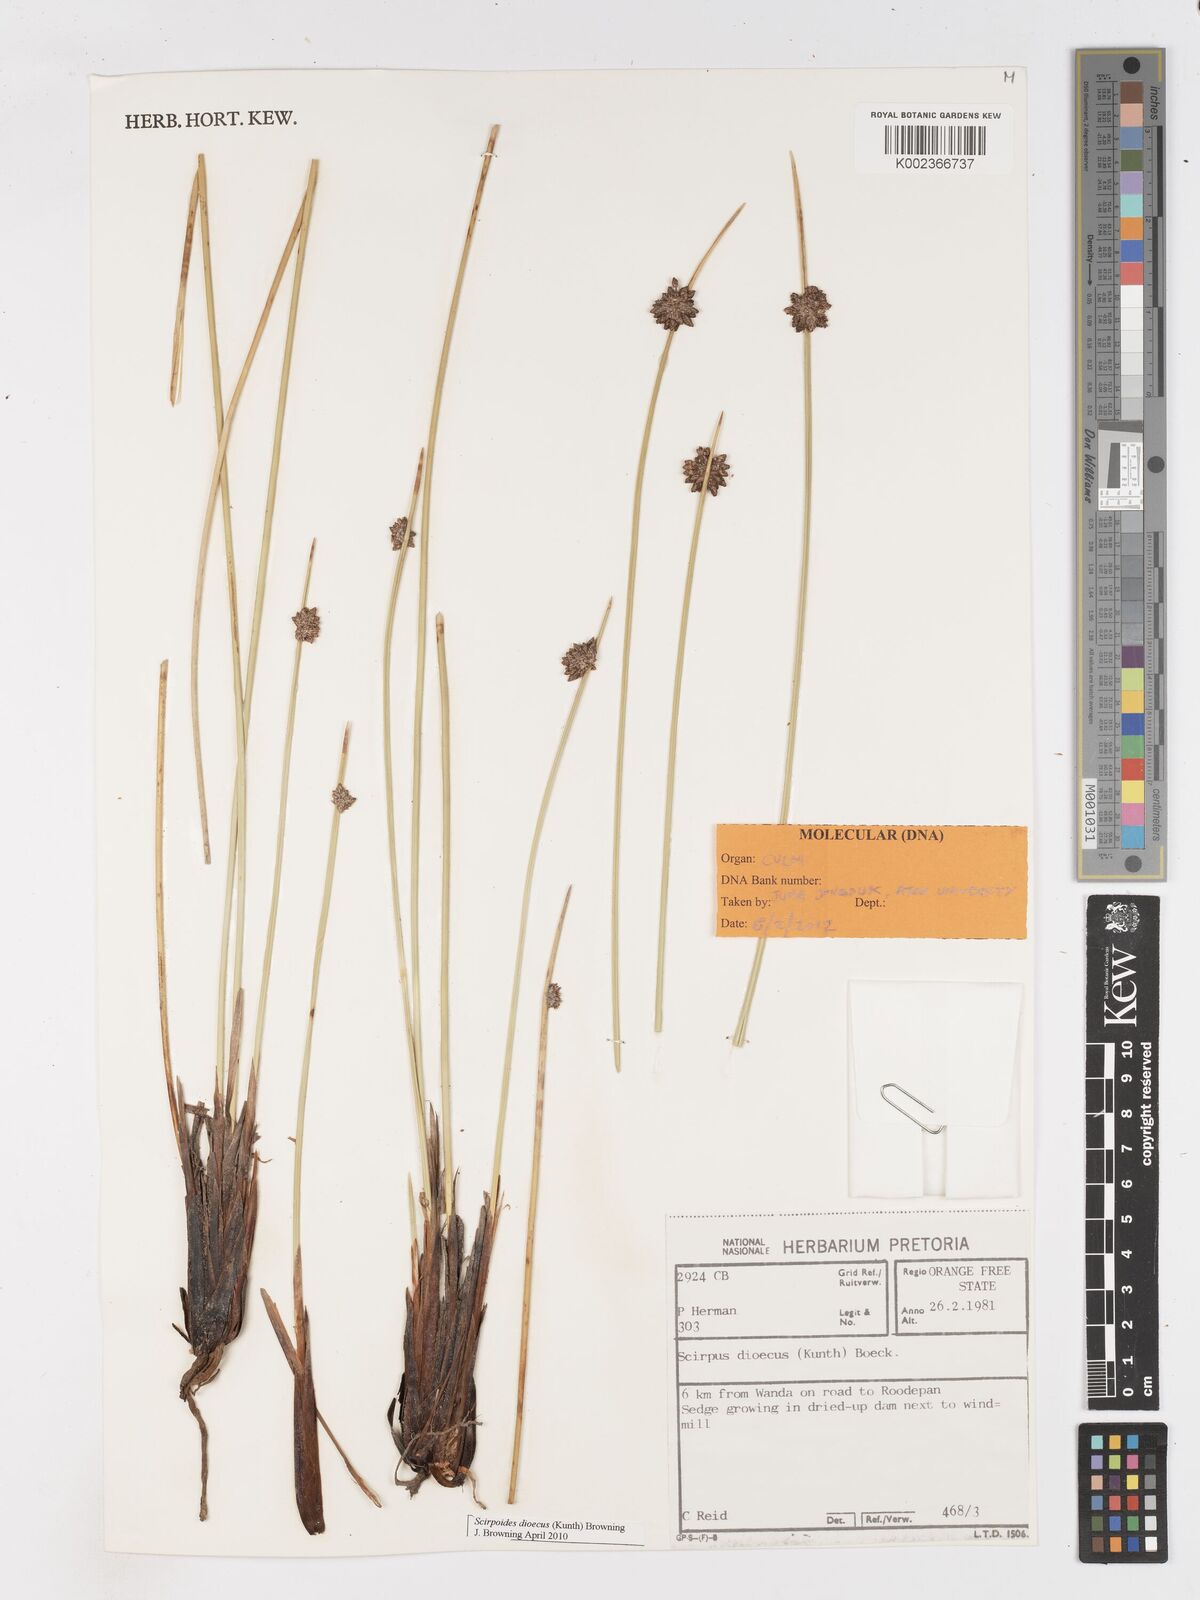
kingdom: Plantae
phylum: Tracheophyta
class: Liliopsida
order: Poales
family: Cyperaceae
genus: Afroscirpoides
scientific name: Afroscirpoides dioeca
